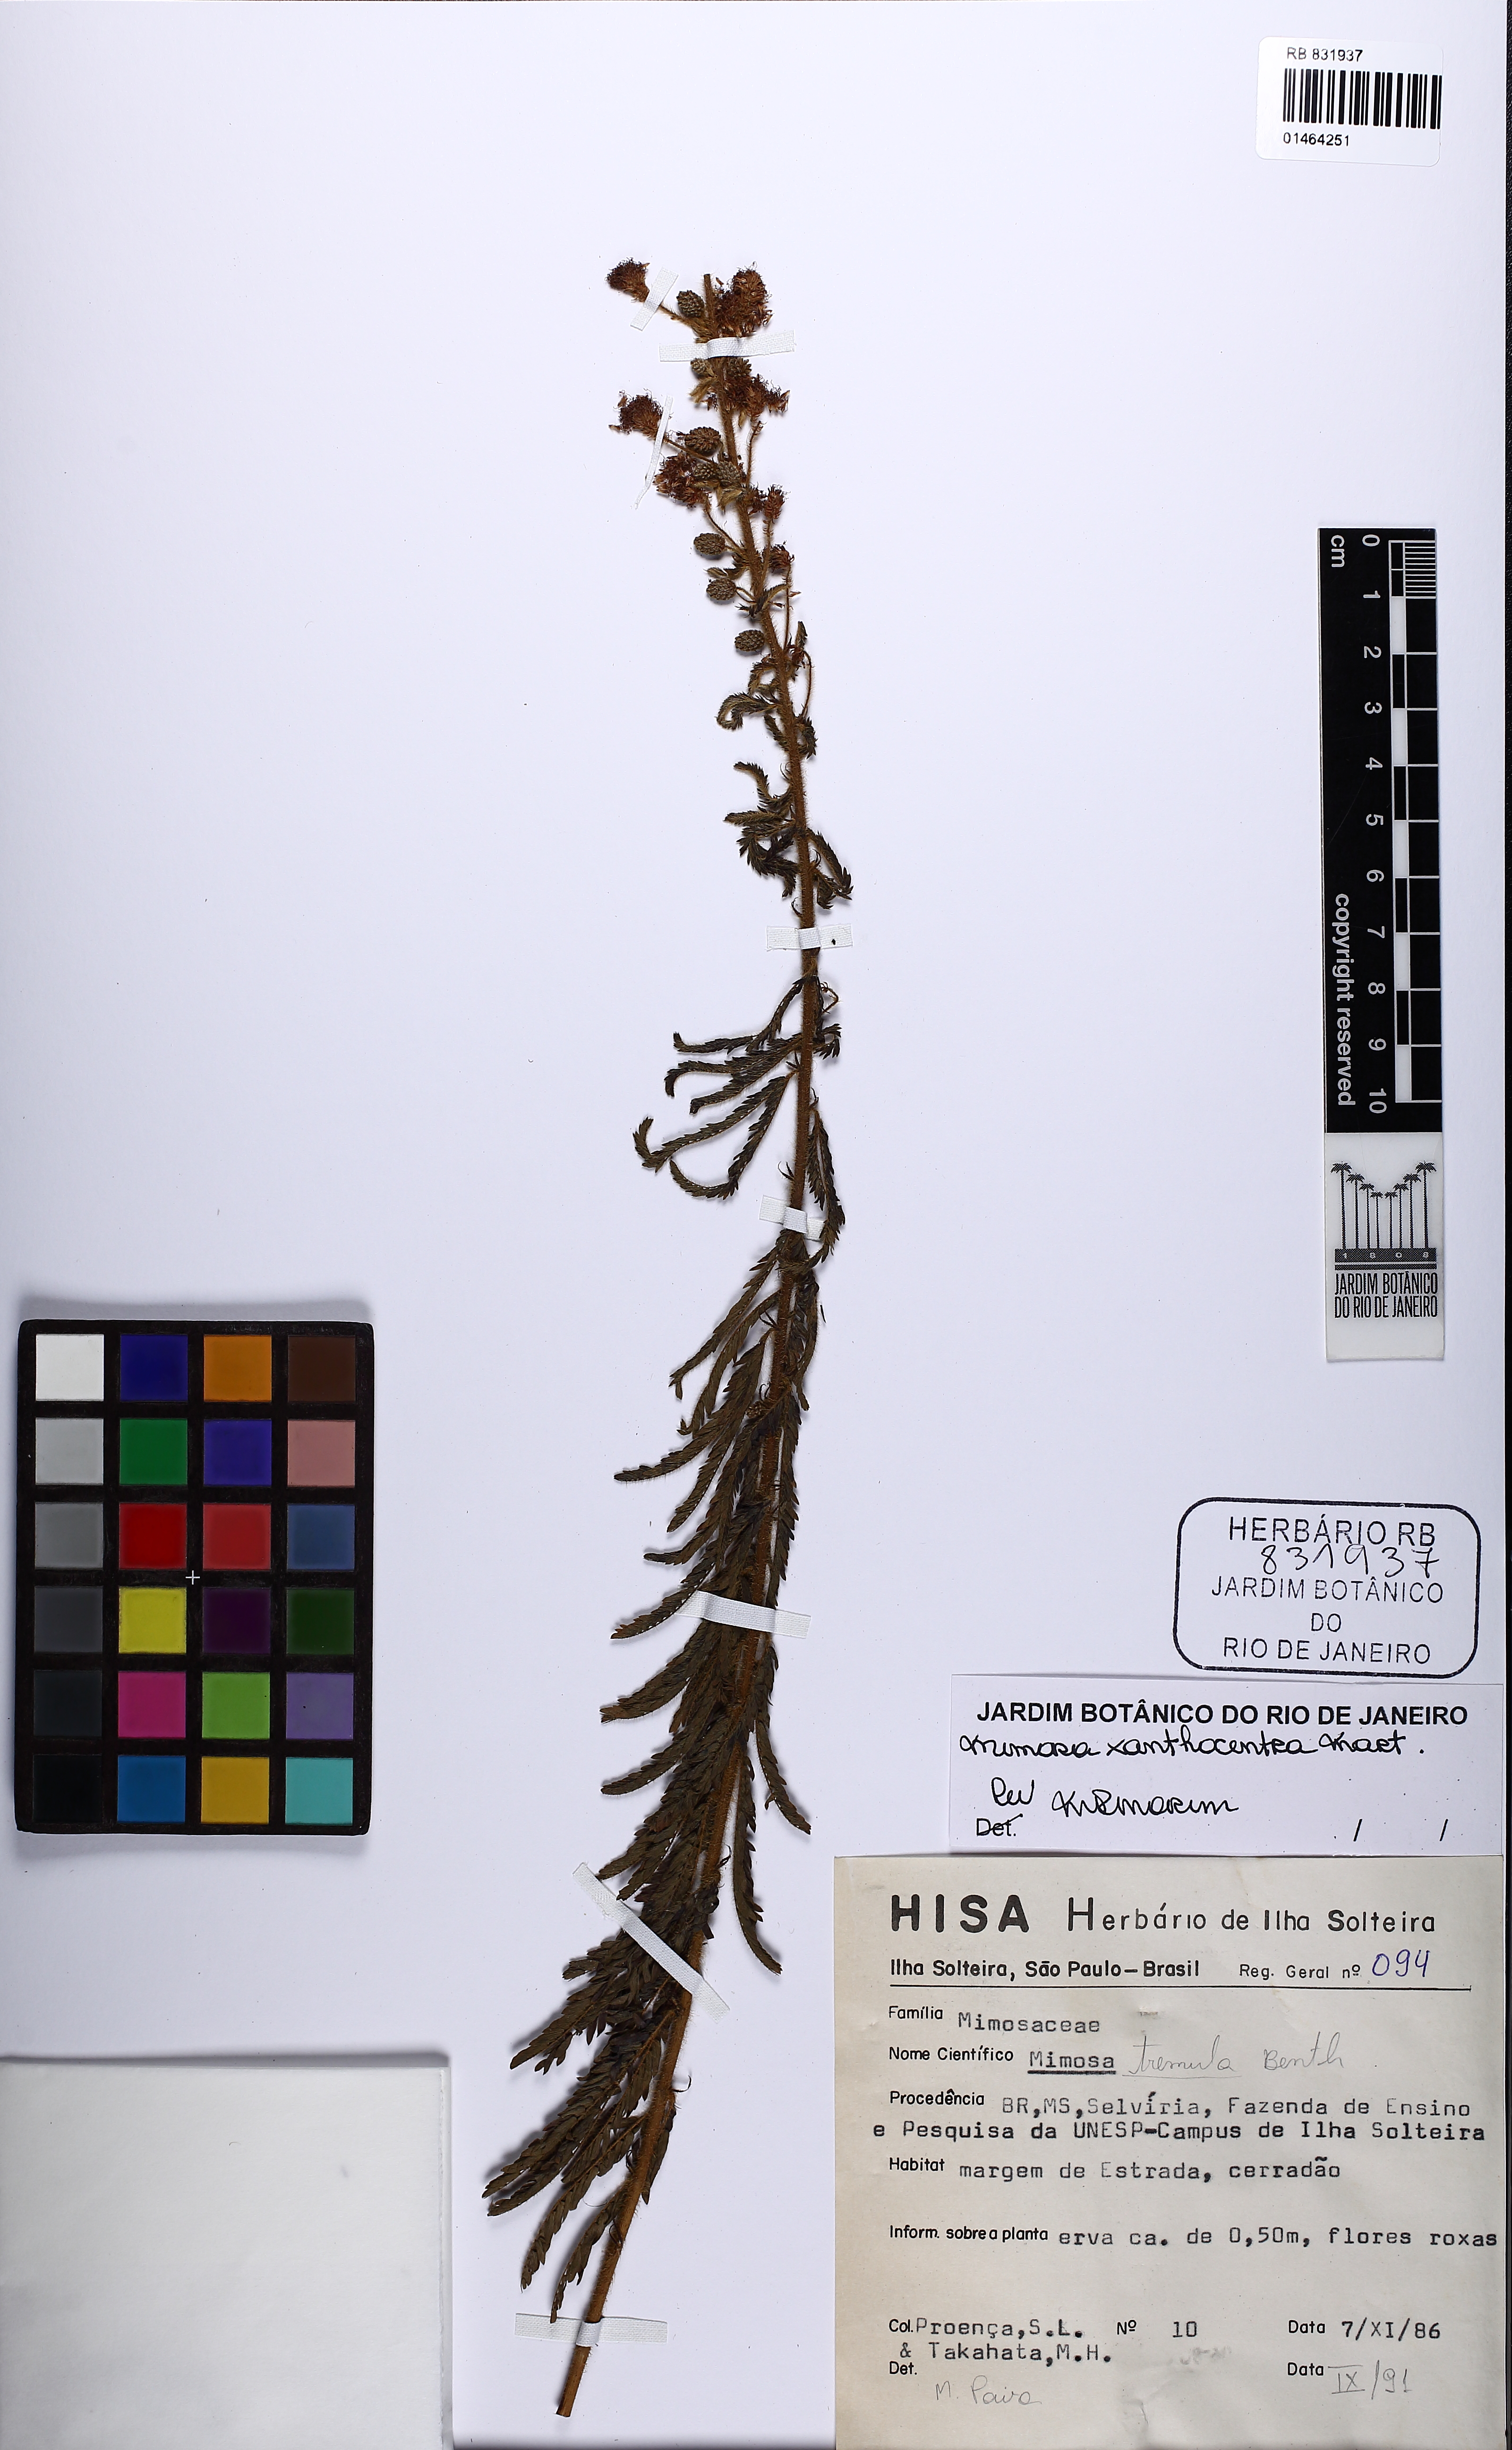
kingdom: Plantae
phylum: Tracheophyta
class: Magnoliopsida
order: Fabales
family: Fabaceae
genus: Mimosa
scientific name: Mimosa xanthocentra
